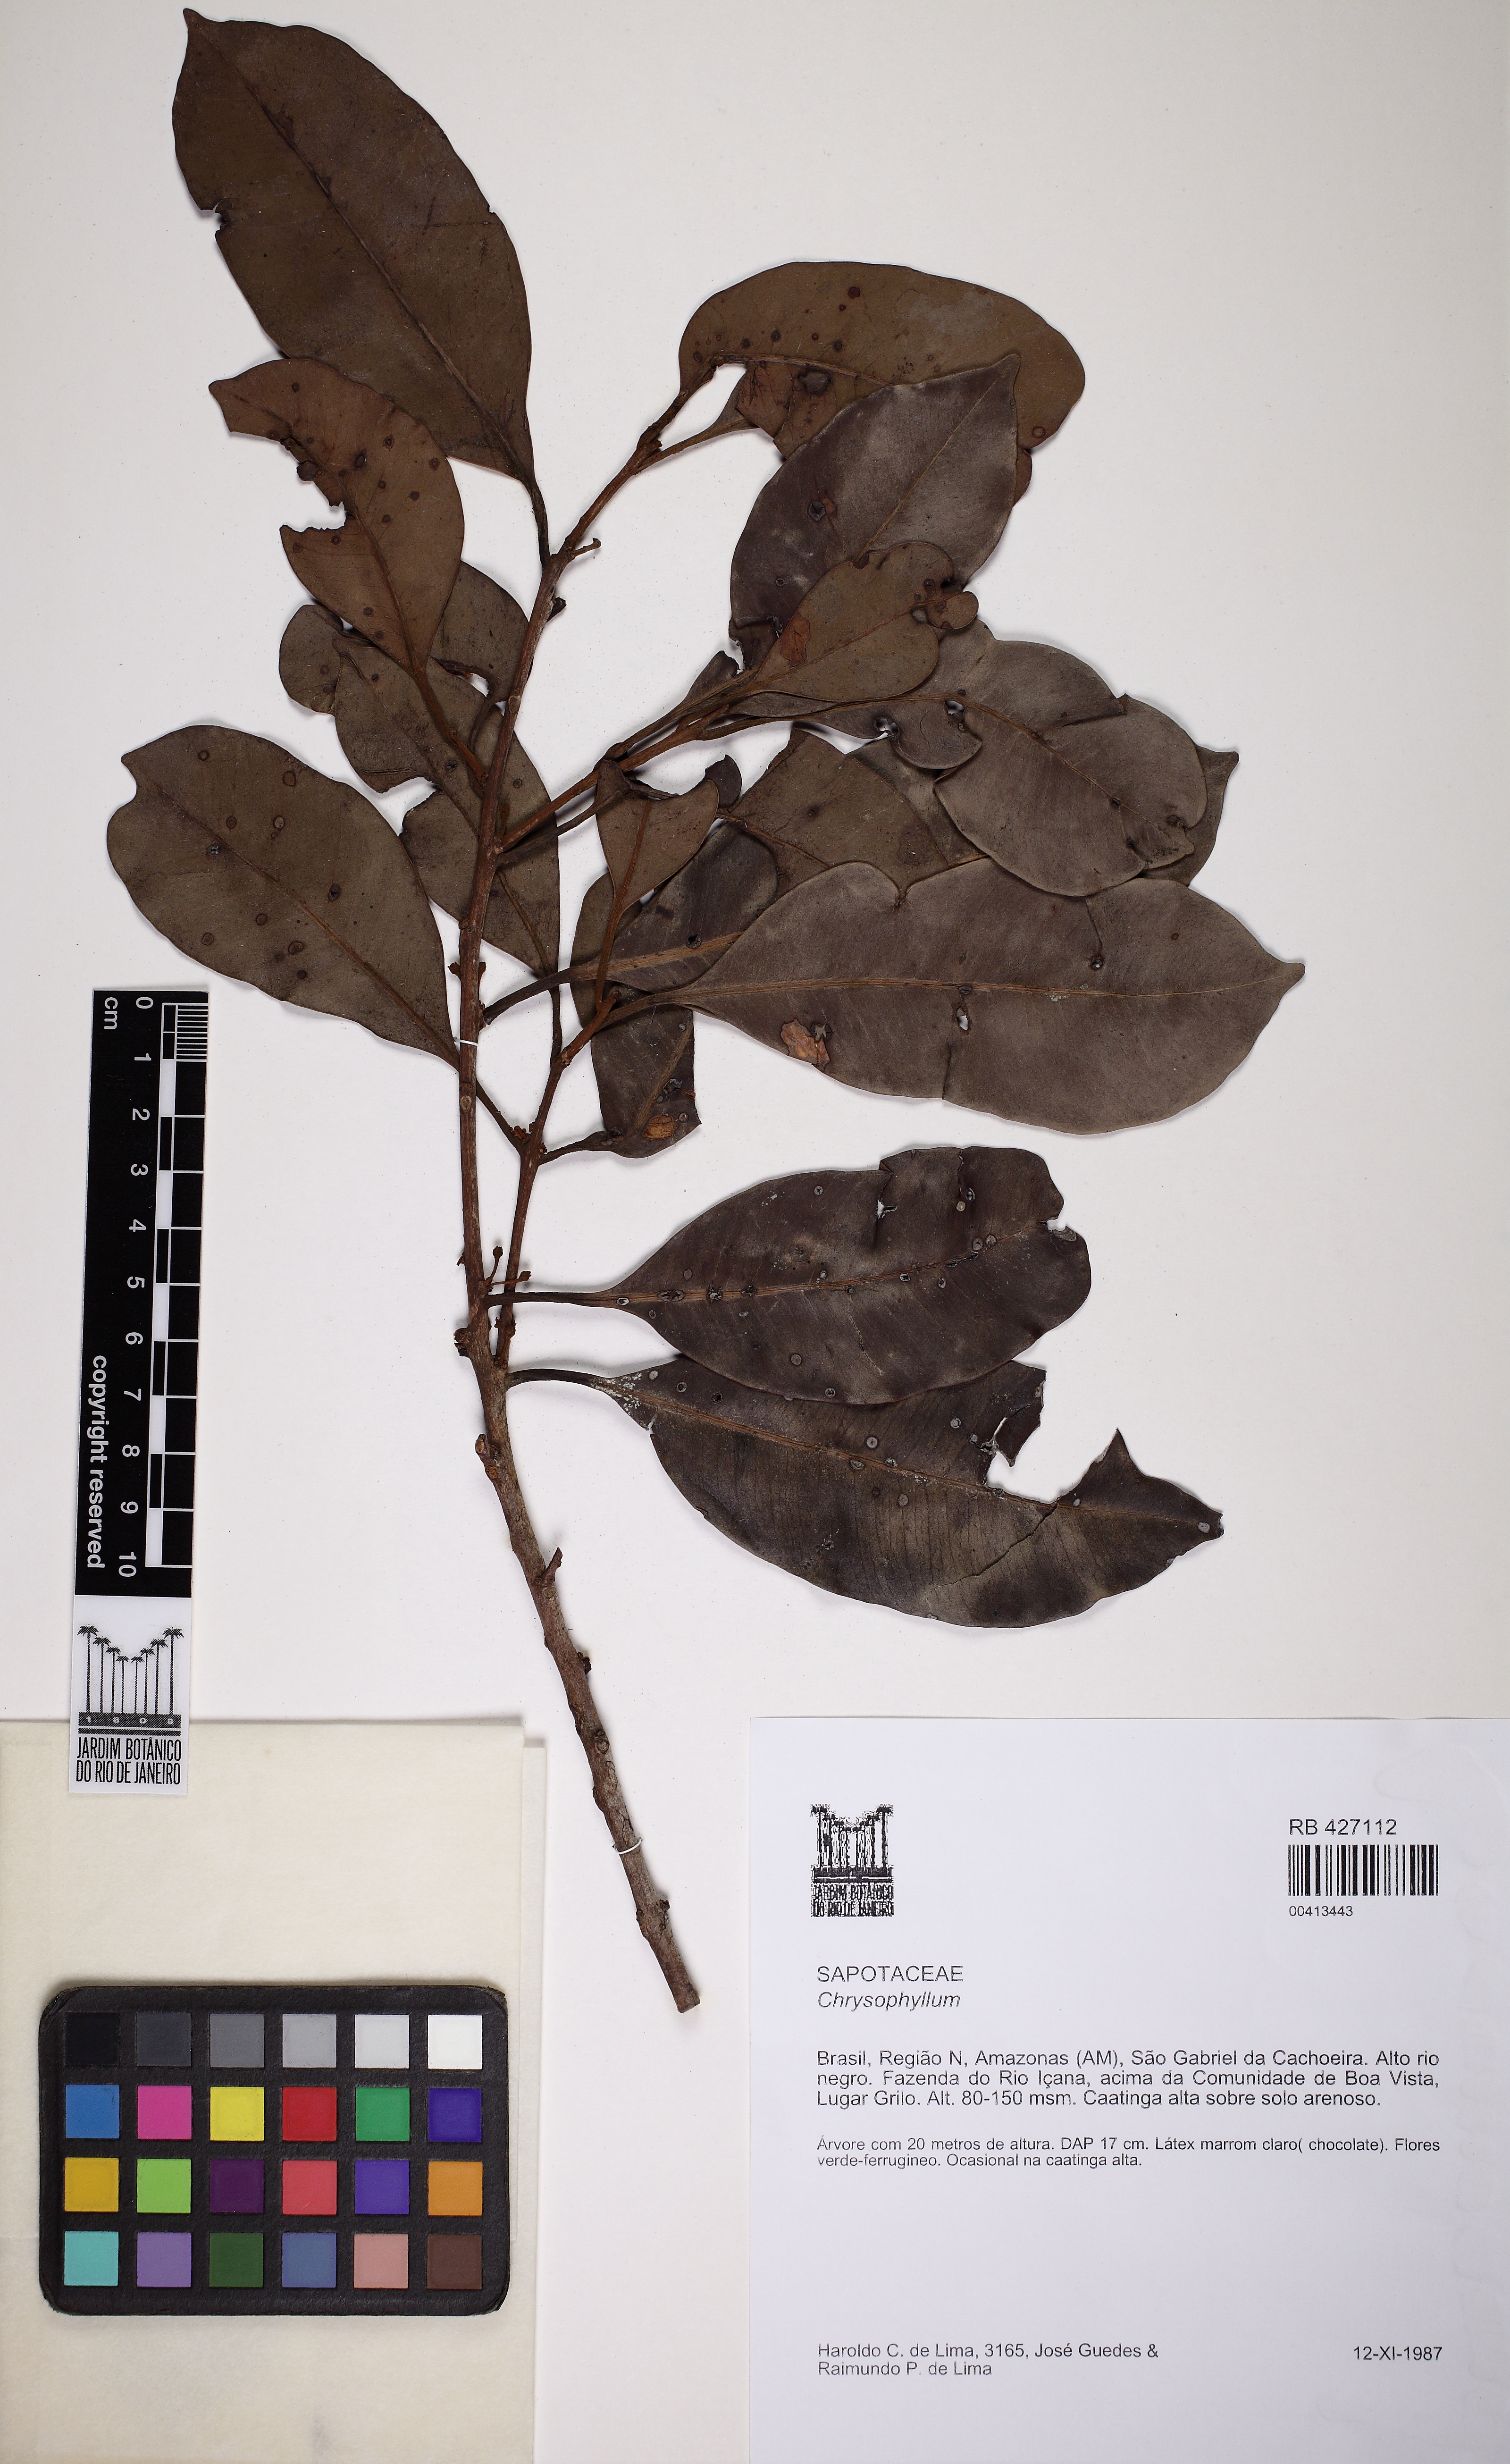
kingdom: Plantae
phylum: Tracheophyta
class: Magnoliopsida
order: Ericales
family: Sapotaceae
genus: Chrysophyllum
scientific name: Chrysophyllum
